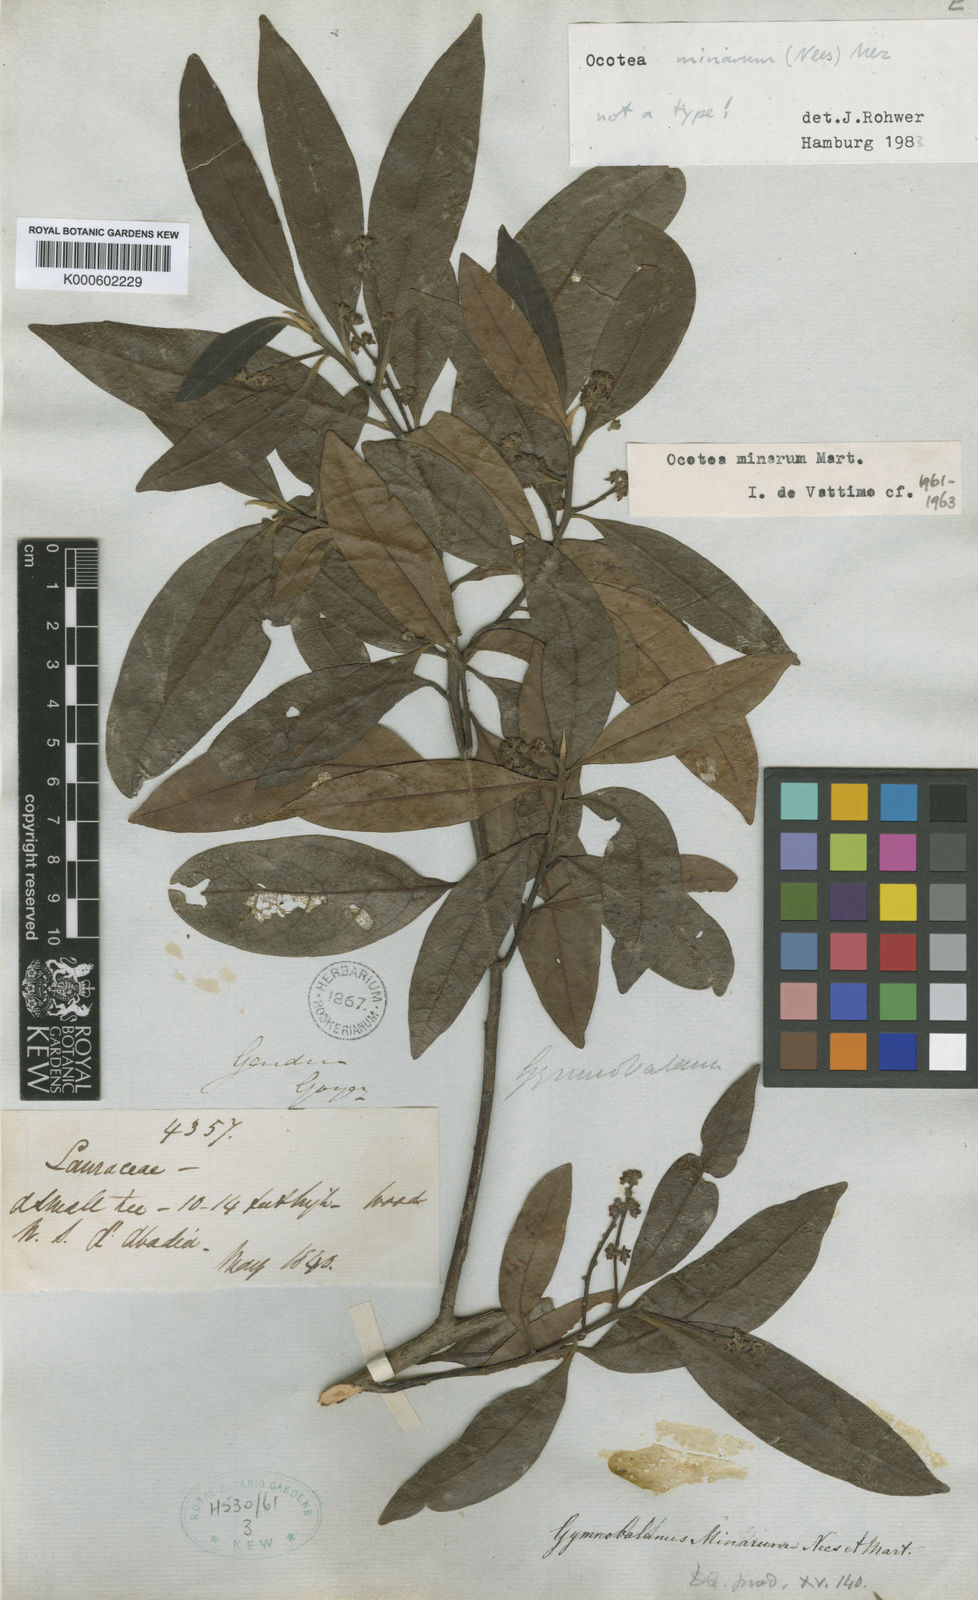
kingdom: Plantae
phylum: Tracheophyta
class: Magnoliopsida
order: Laurales
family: Lauraceae
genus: Ocotea
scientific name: Ocotea minarum
